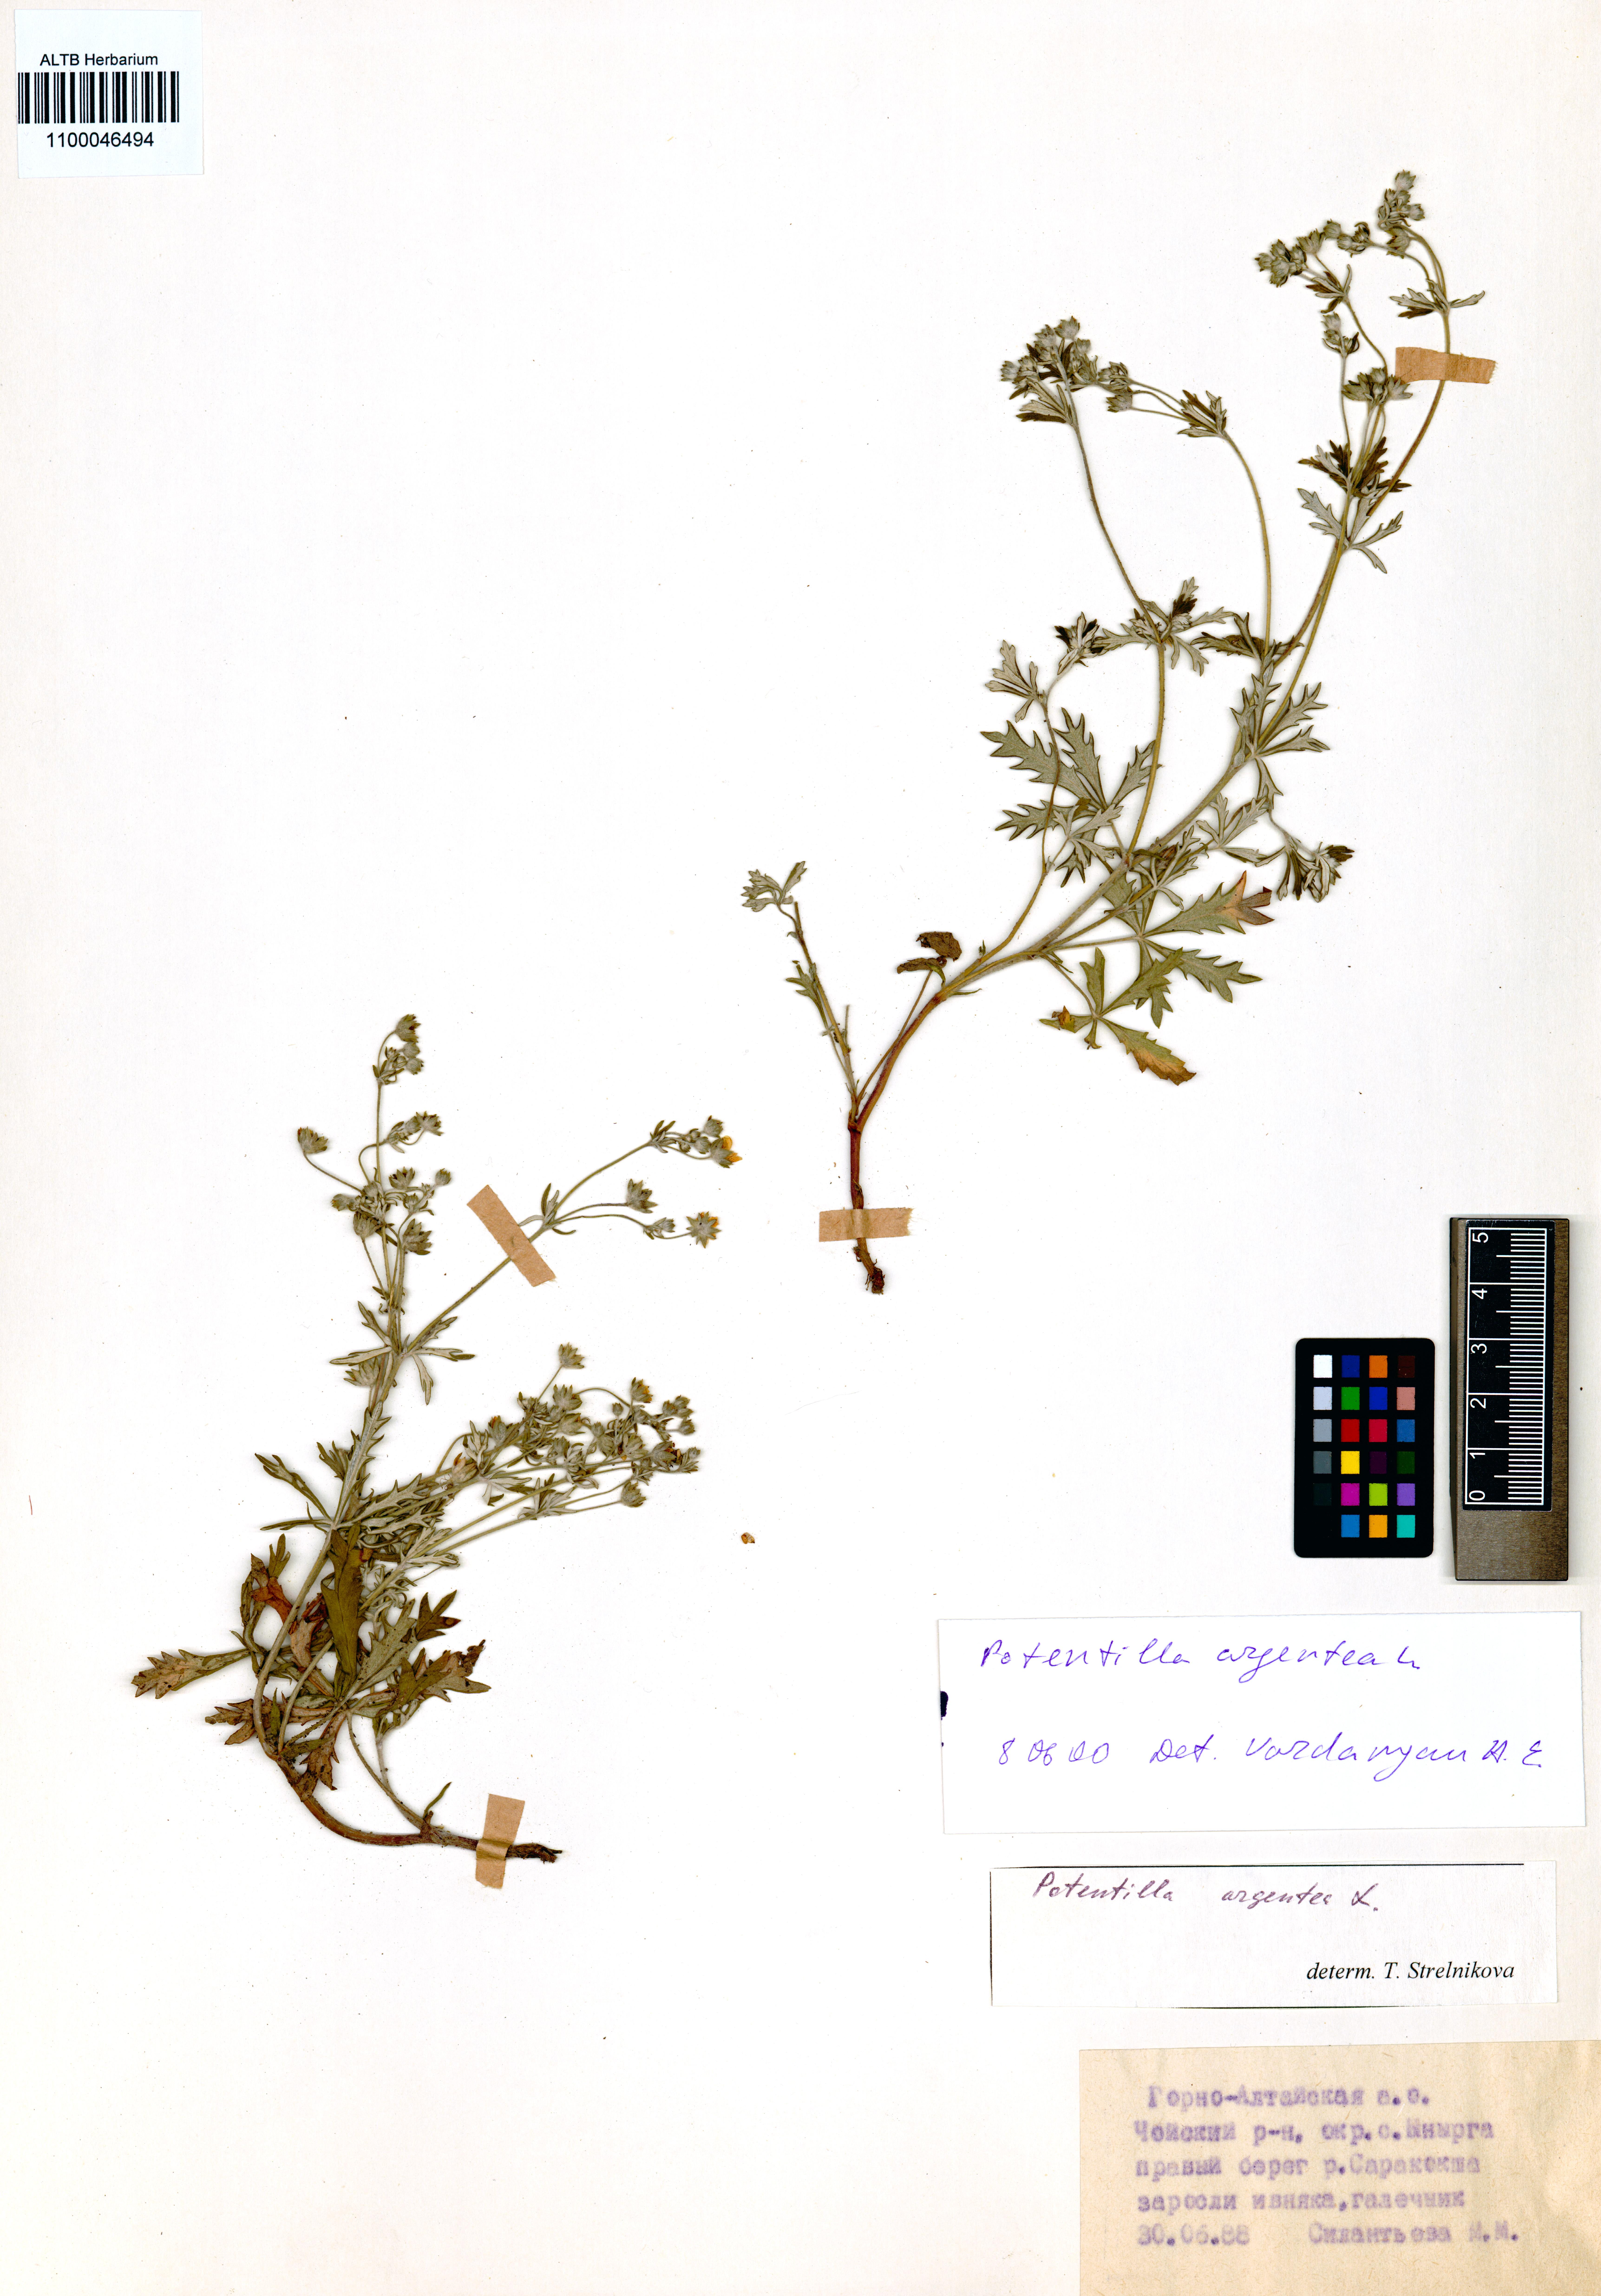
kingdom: Plantae
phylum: Tracheophyta
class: Magnoliopsida
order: Rosales
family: Rosaceae
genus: Potentilla
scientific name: Potentilla argentea
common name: Hoary cinquefoil
